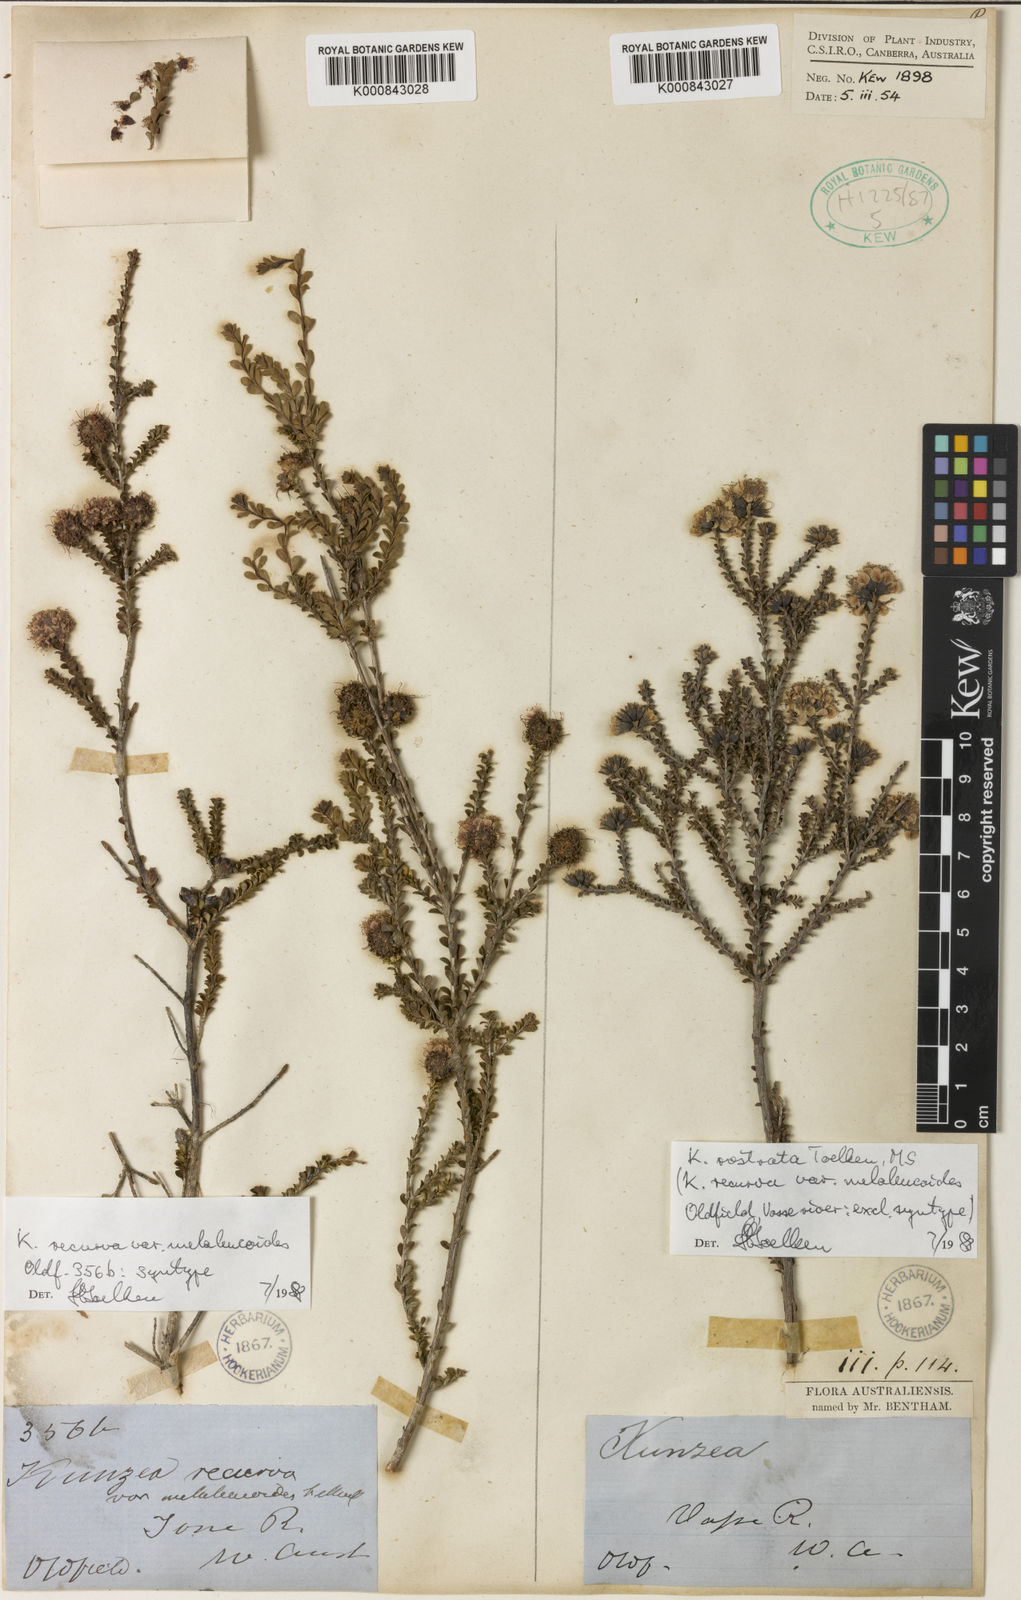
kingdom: Plantae
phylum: Tracheophyta
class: Magnoliopsida
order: Myrtales
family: Myrtaceae
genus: Kunzea
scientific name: Kunzea recurva
